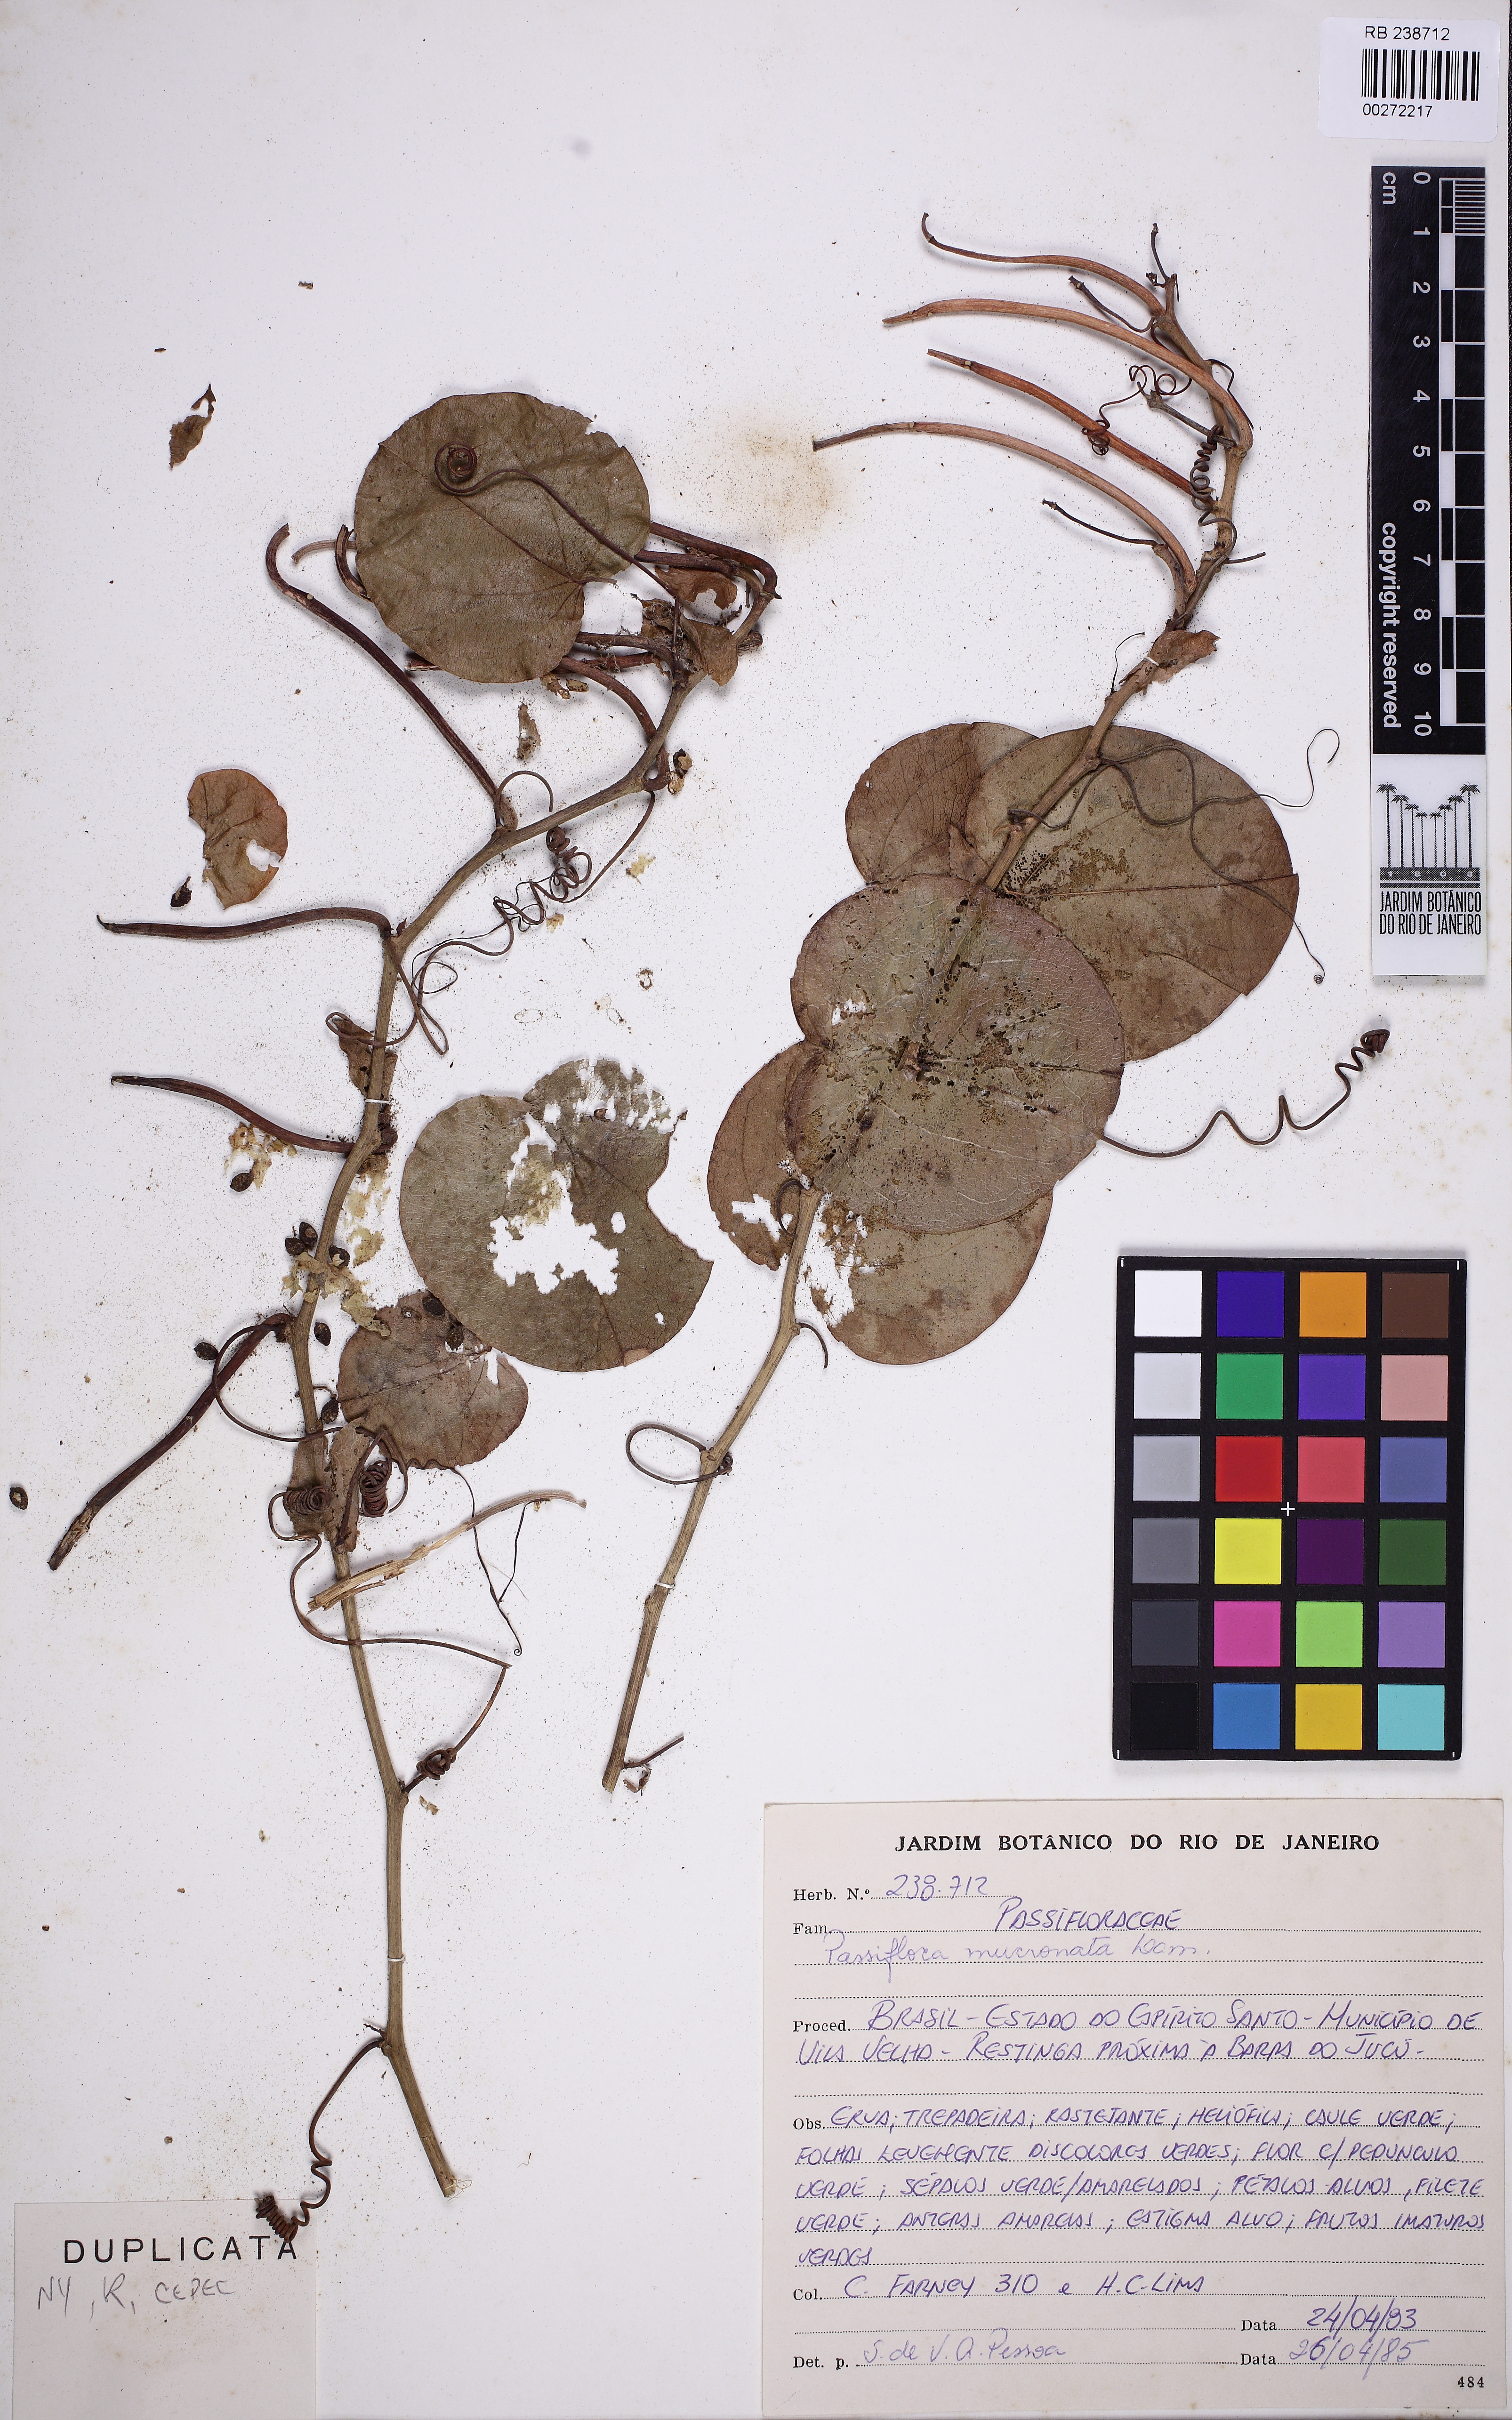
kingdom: Plantae
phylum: Tracheophyta
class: Magnoliopsida
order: Malpighiales
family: Passifloraceae
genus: Passiflora
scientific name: Passiflora mucronata
